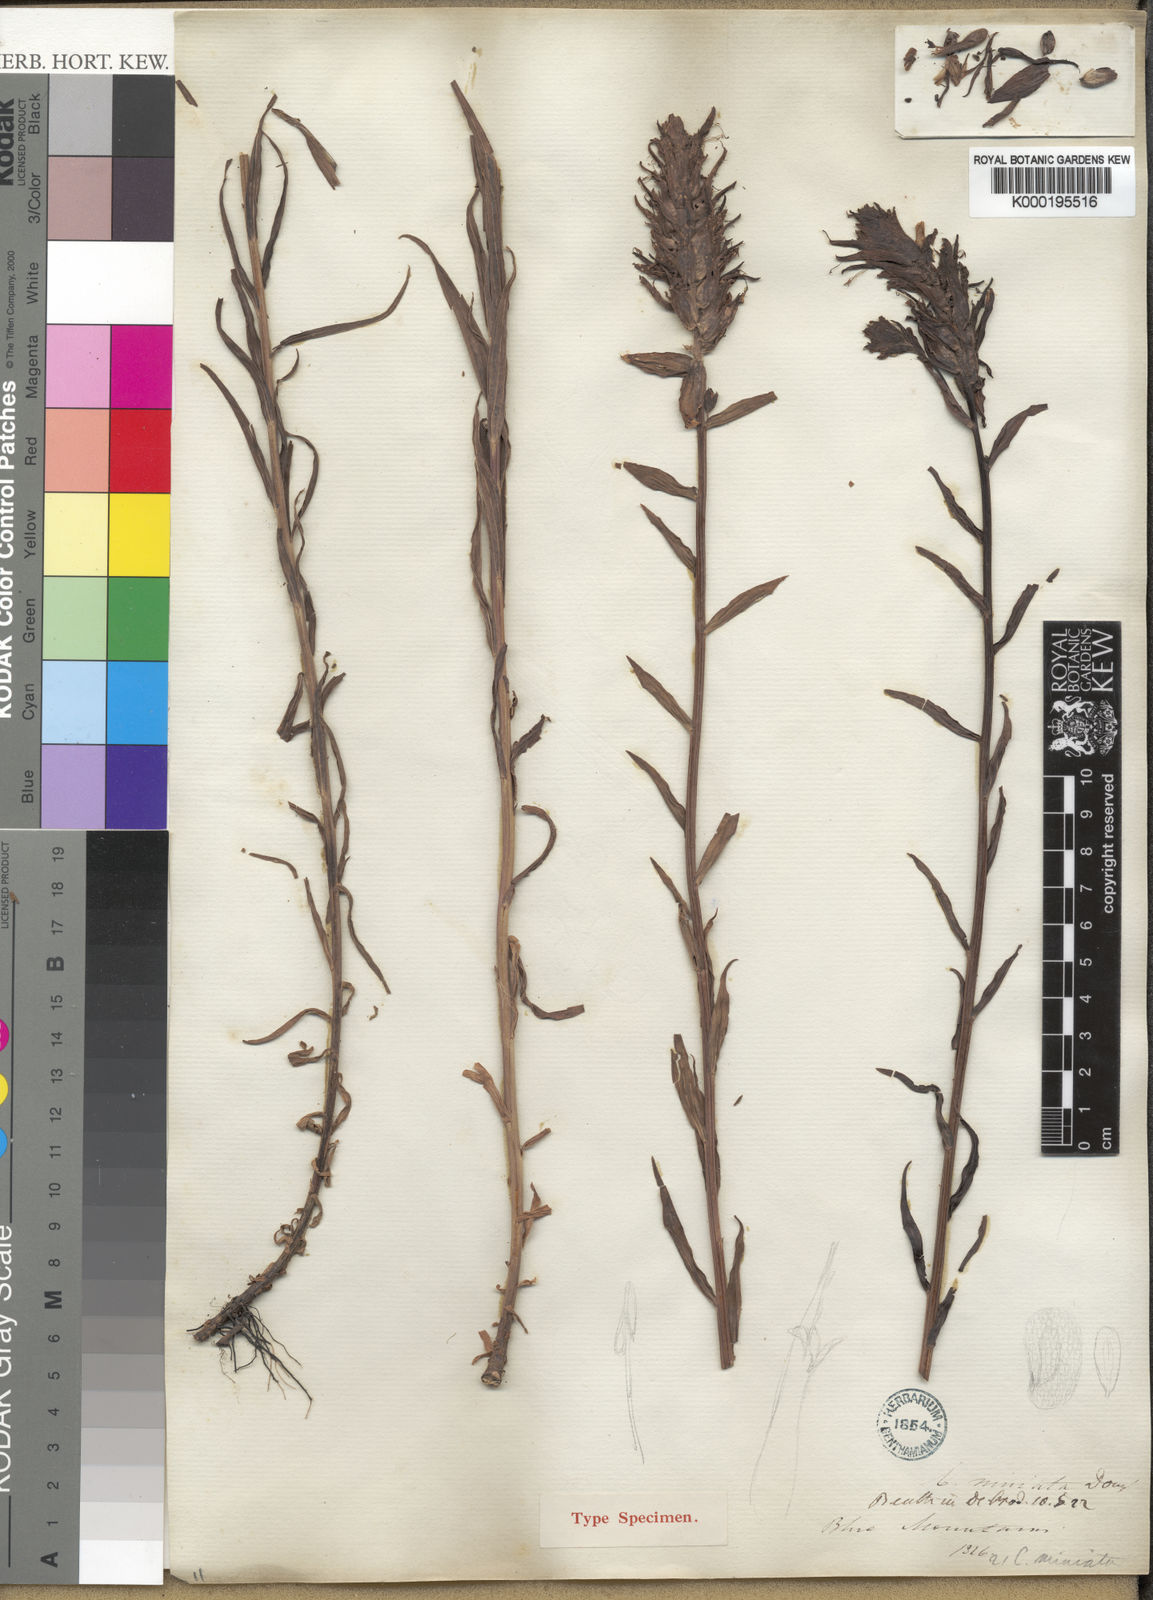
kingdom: Plantae
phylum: Tracheophyta
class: Magnoliopsida
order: Lamiales
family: Orobanchaceae
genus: Castilleja
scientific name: Castilleja
